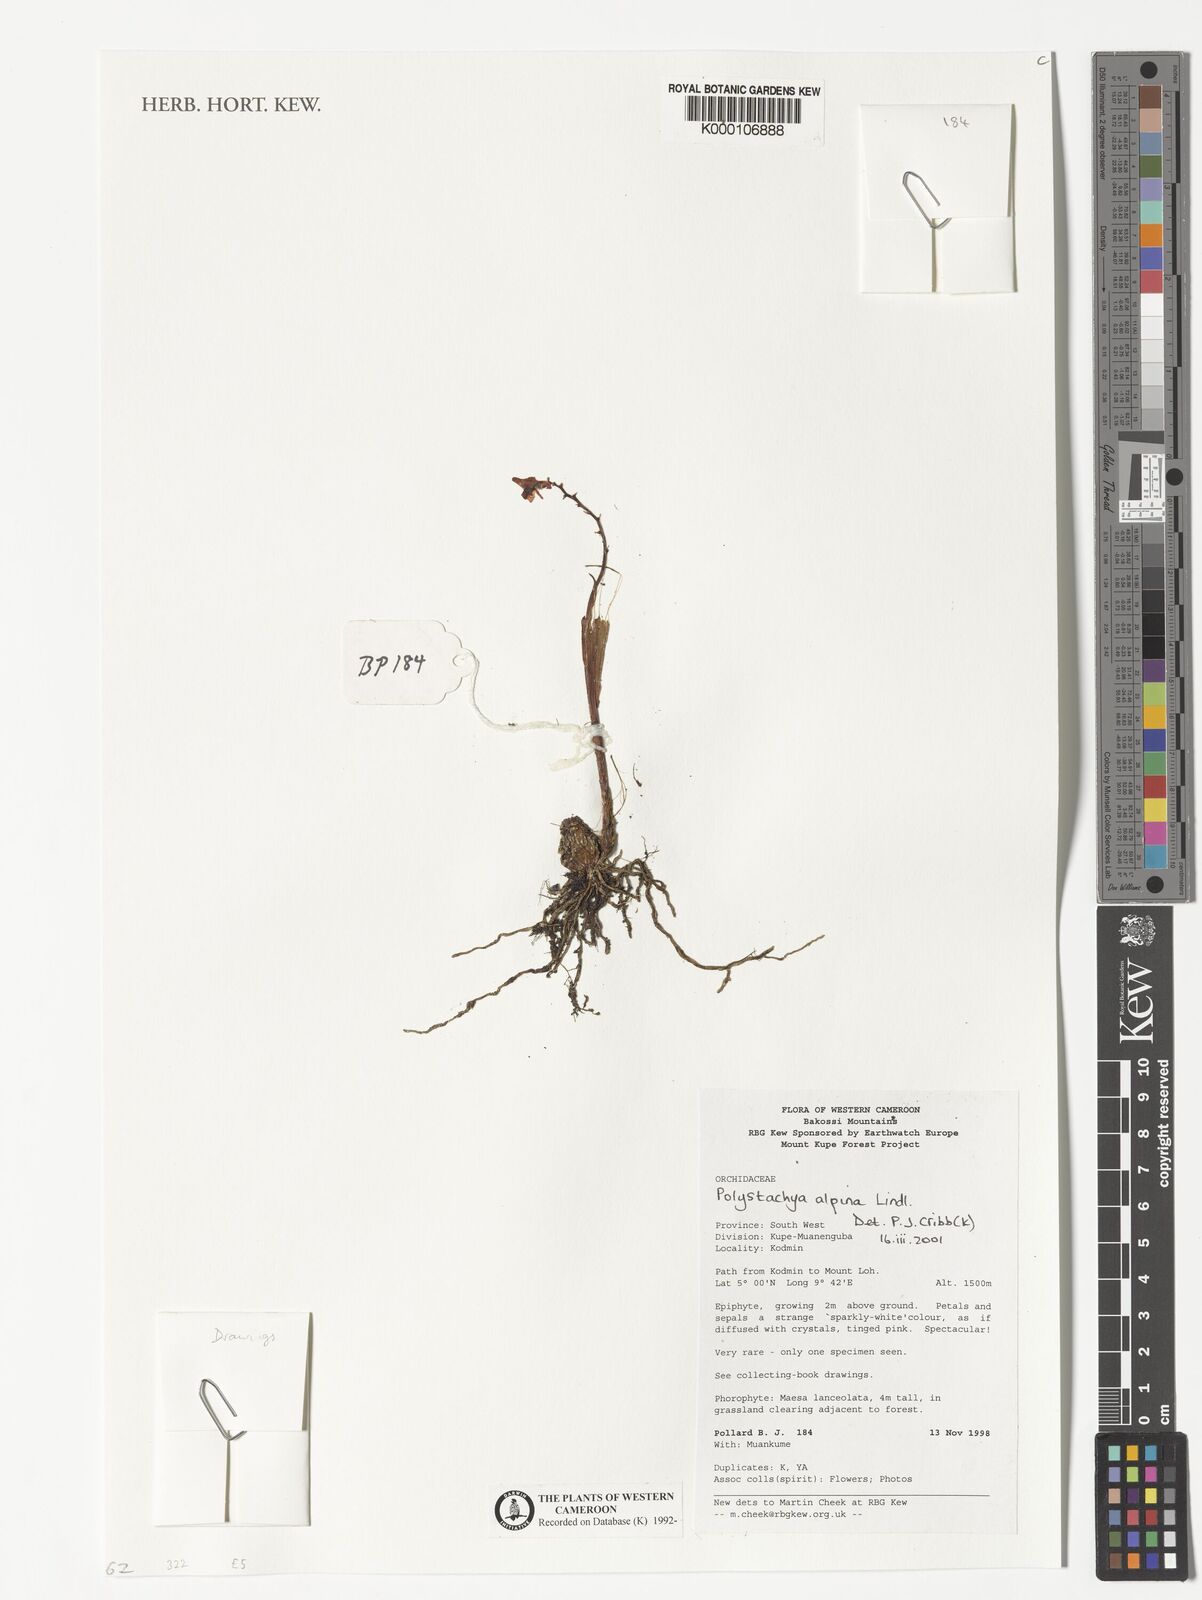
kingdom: Plantae
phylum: Tracheophyta
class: Liliopsida
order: Asparagales
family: Orchidaceae
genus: Polystachya
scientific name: Polystachya alpina
